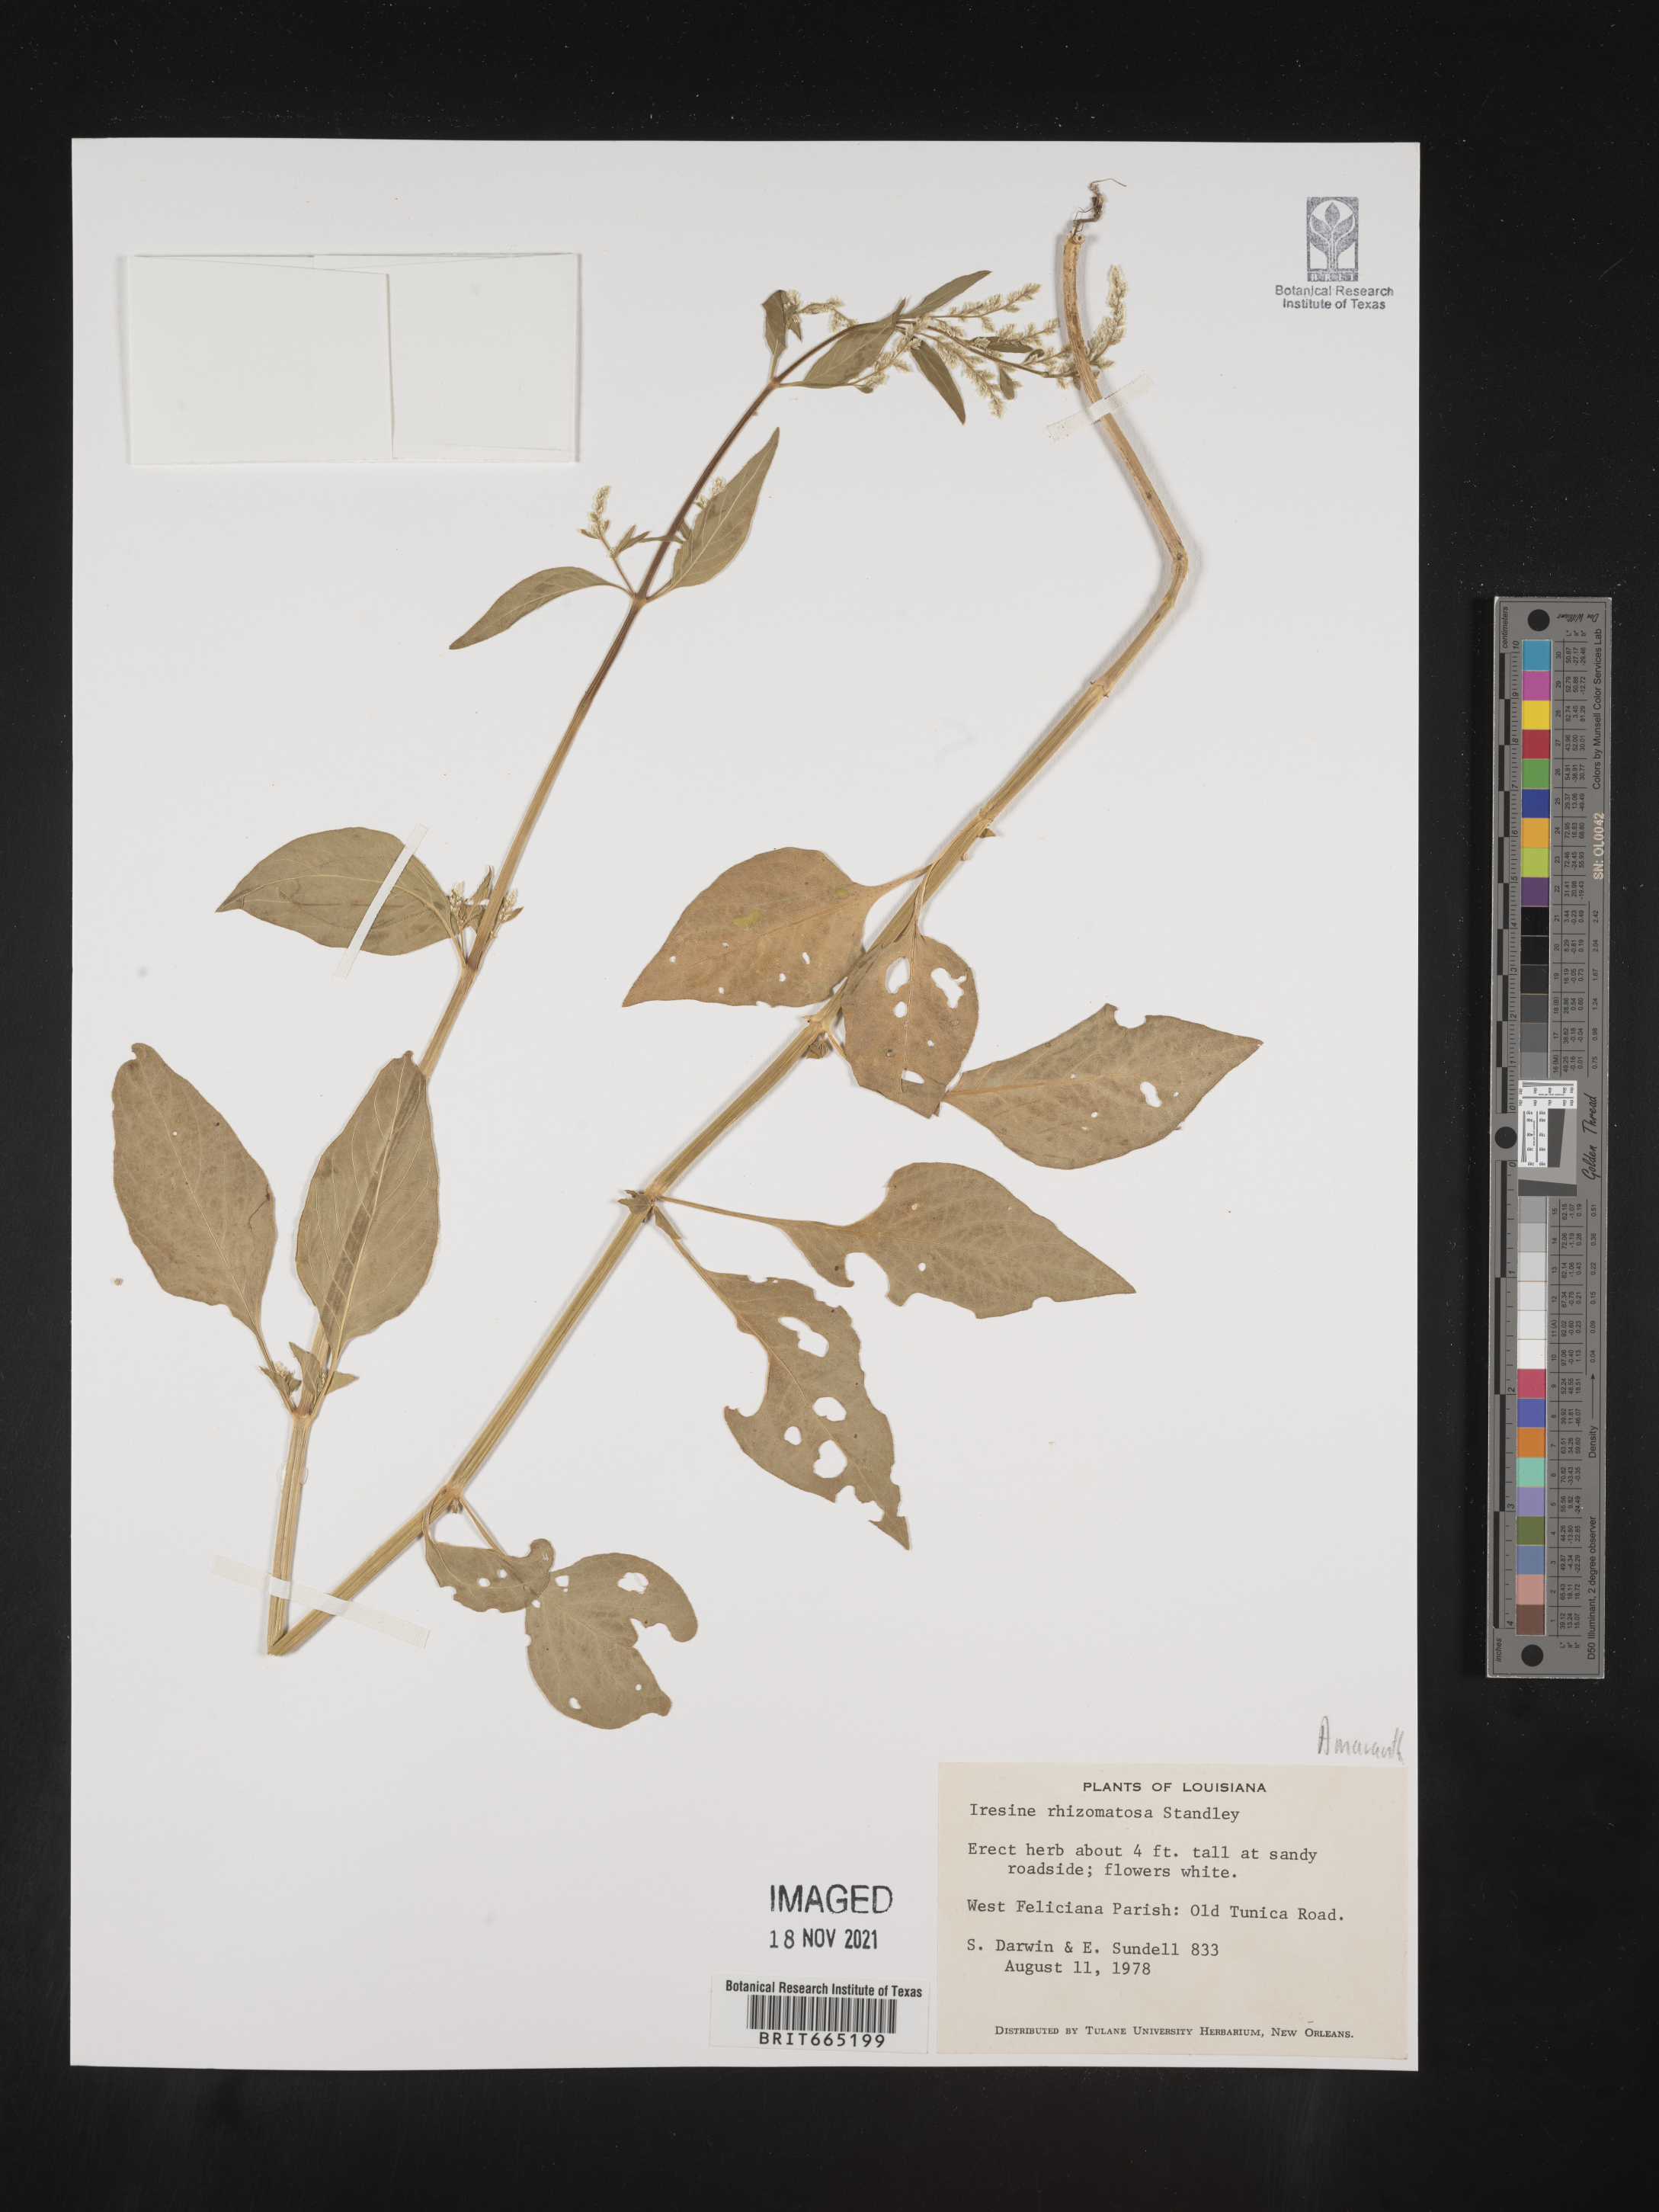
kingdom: Plantae
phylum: Tracheophyta
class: Magnoliopsida
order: Caryophyllales
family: Amaranthaceae
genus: Iresine
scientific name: Iresine rhizomatosa
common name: Juda's-bush
